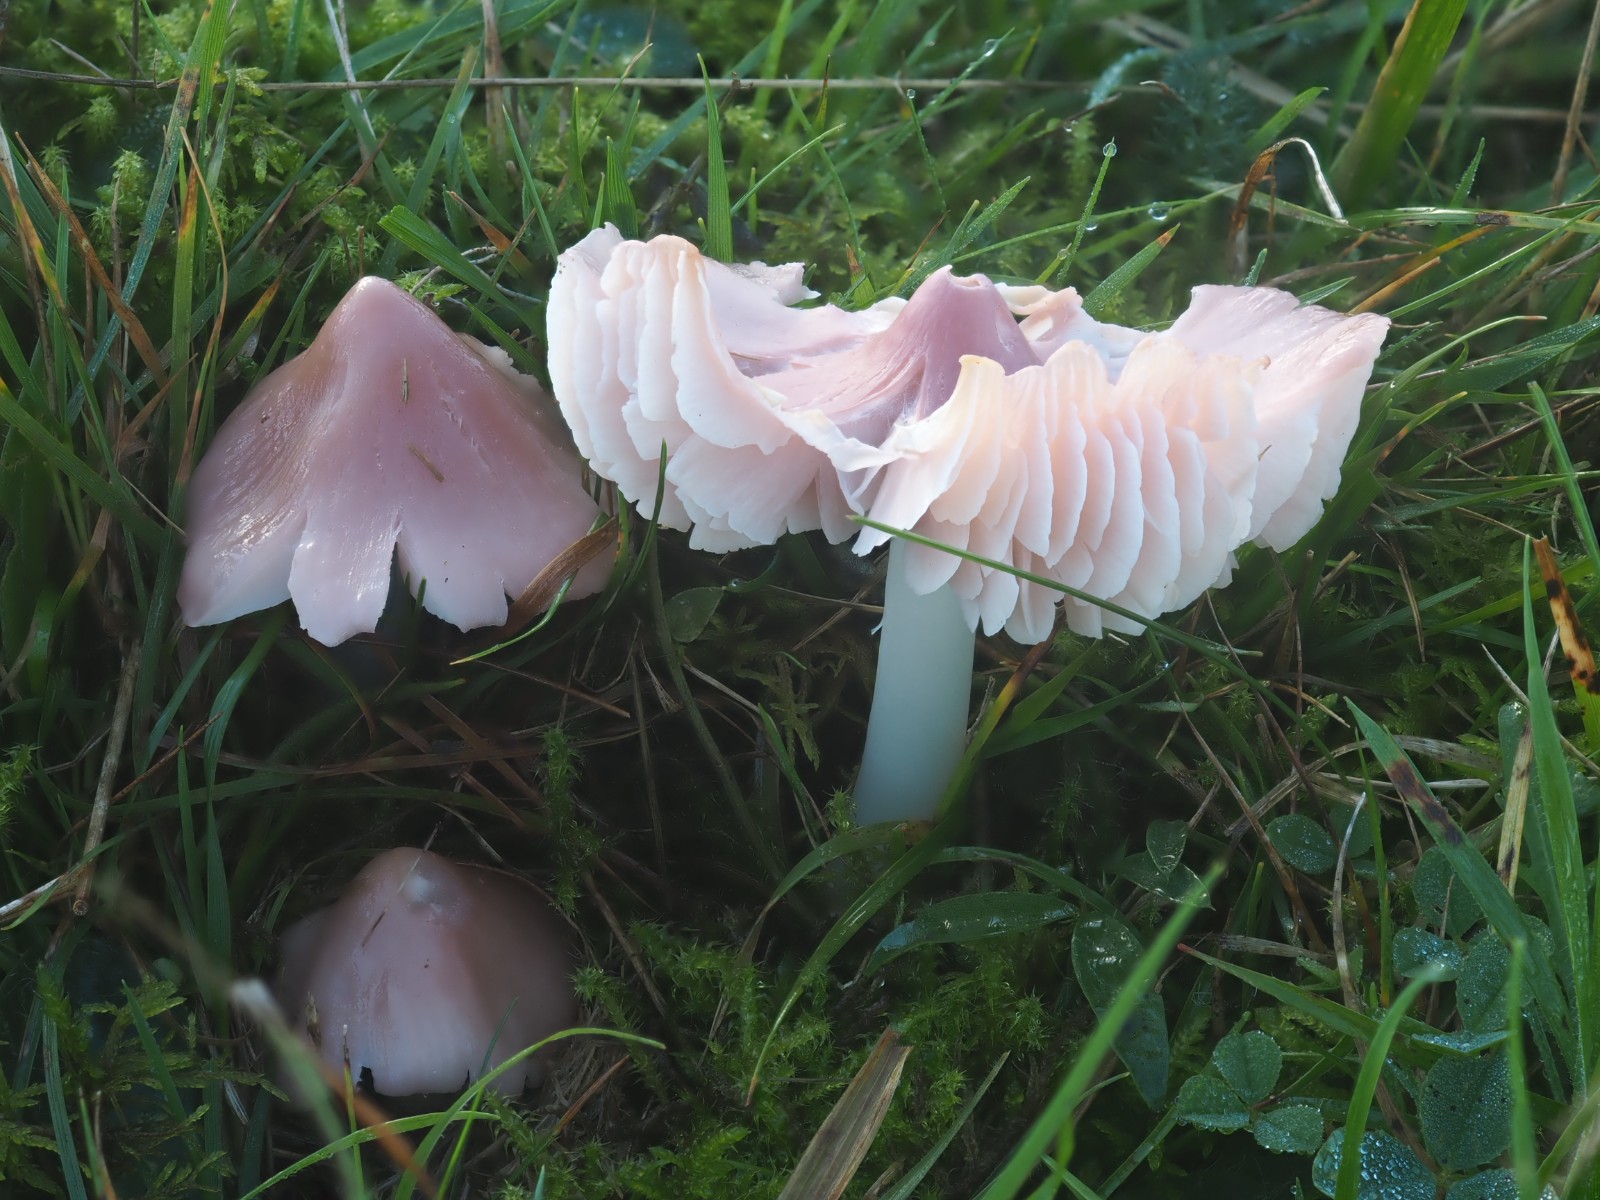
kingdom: Fungi
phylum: Basidiomycota
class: Agaricomycetes
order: Agaricales
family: Hygrophoraceae
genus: Porpolomopsis
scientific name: Porpolomopsis calyptriformis
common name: rosenrød vokshat
